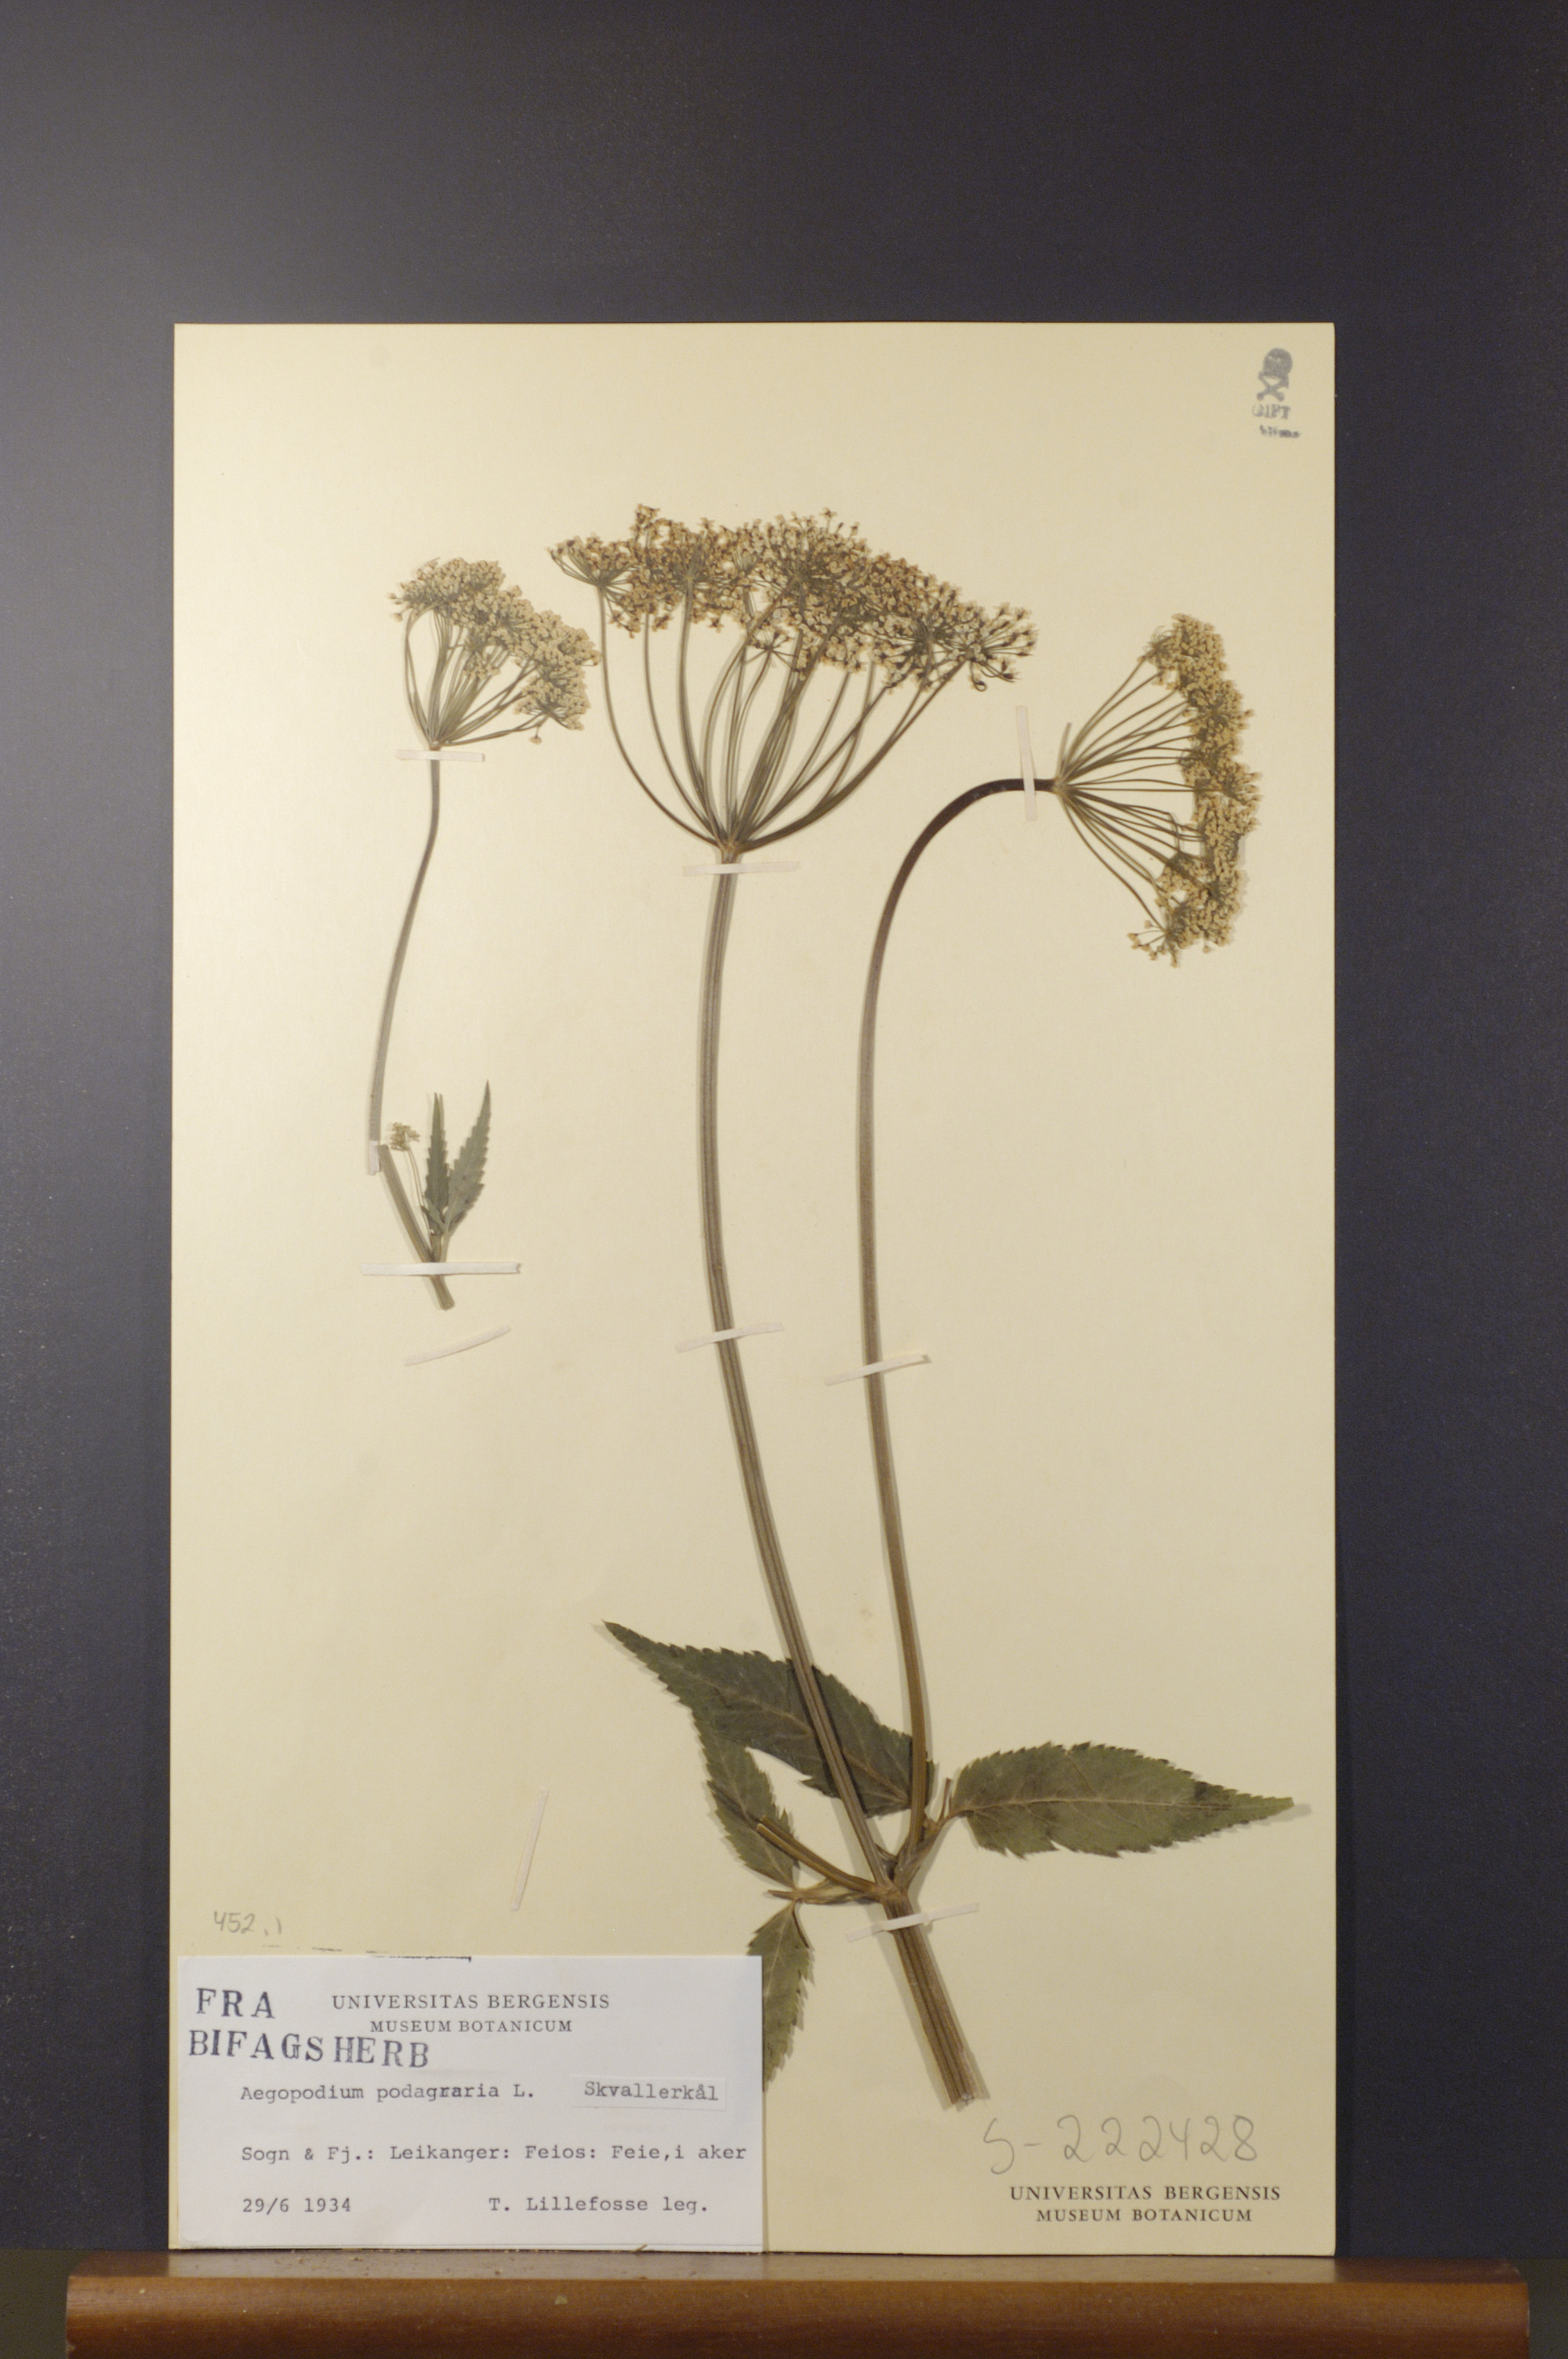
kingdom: Plantae
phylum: Tracheophyta
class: Magnoliopsida
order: Apiales
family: Apiaceae
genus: Aegopodium
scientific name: Aegopodium podagraria
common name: Ground-elder
